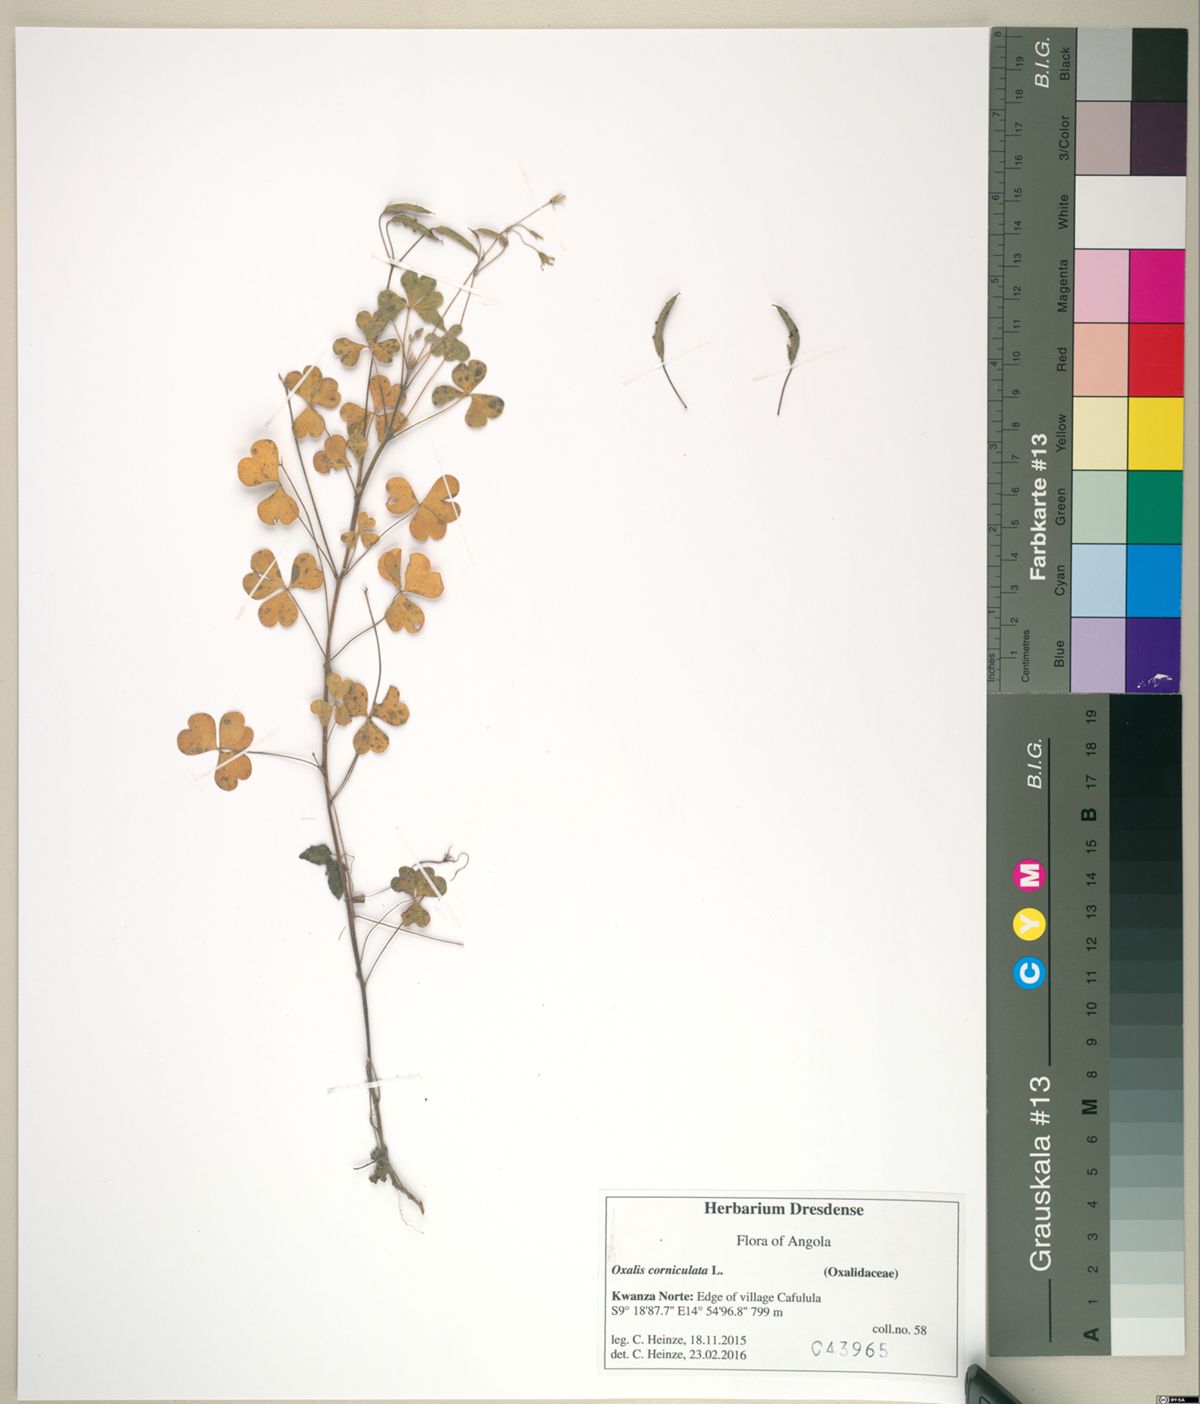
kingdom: Plantae
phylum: Tracheophyta
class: Magnoliopsida
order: Oxalidales
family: Oxalidaceae
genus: Oxalis
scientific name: Oxalis corniculata
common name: Procumbent yellow-sorrel
